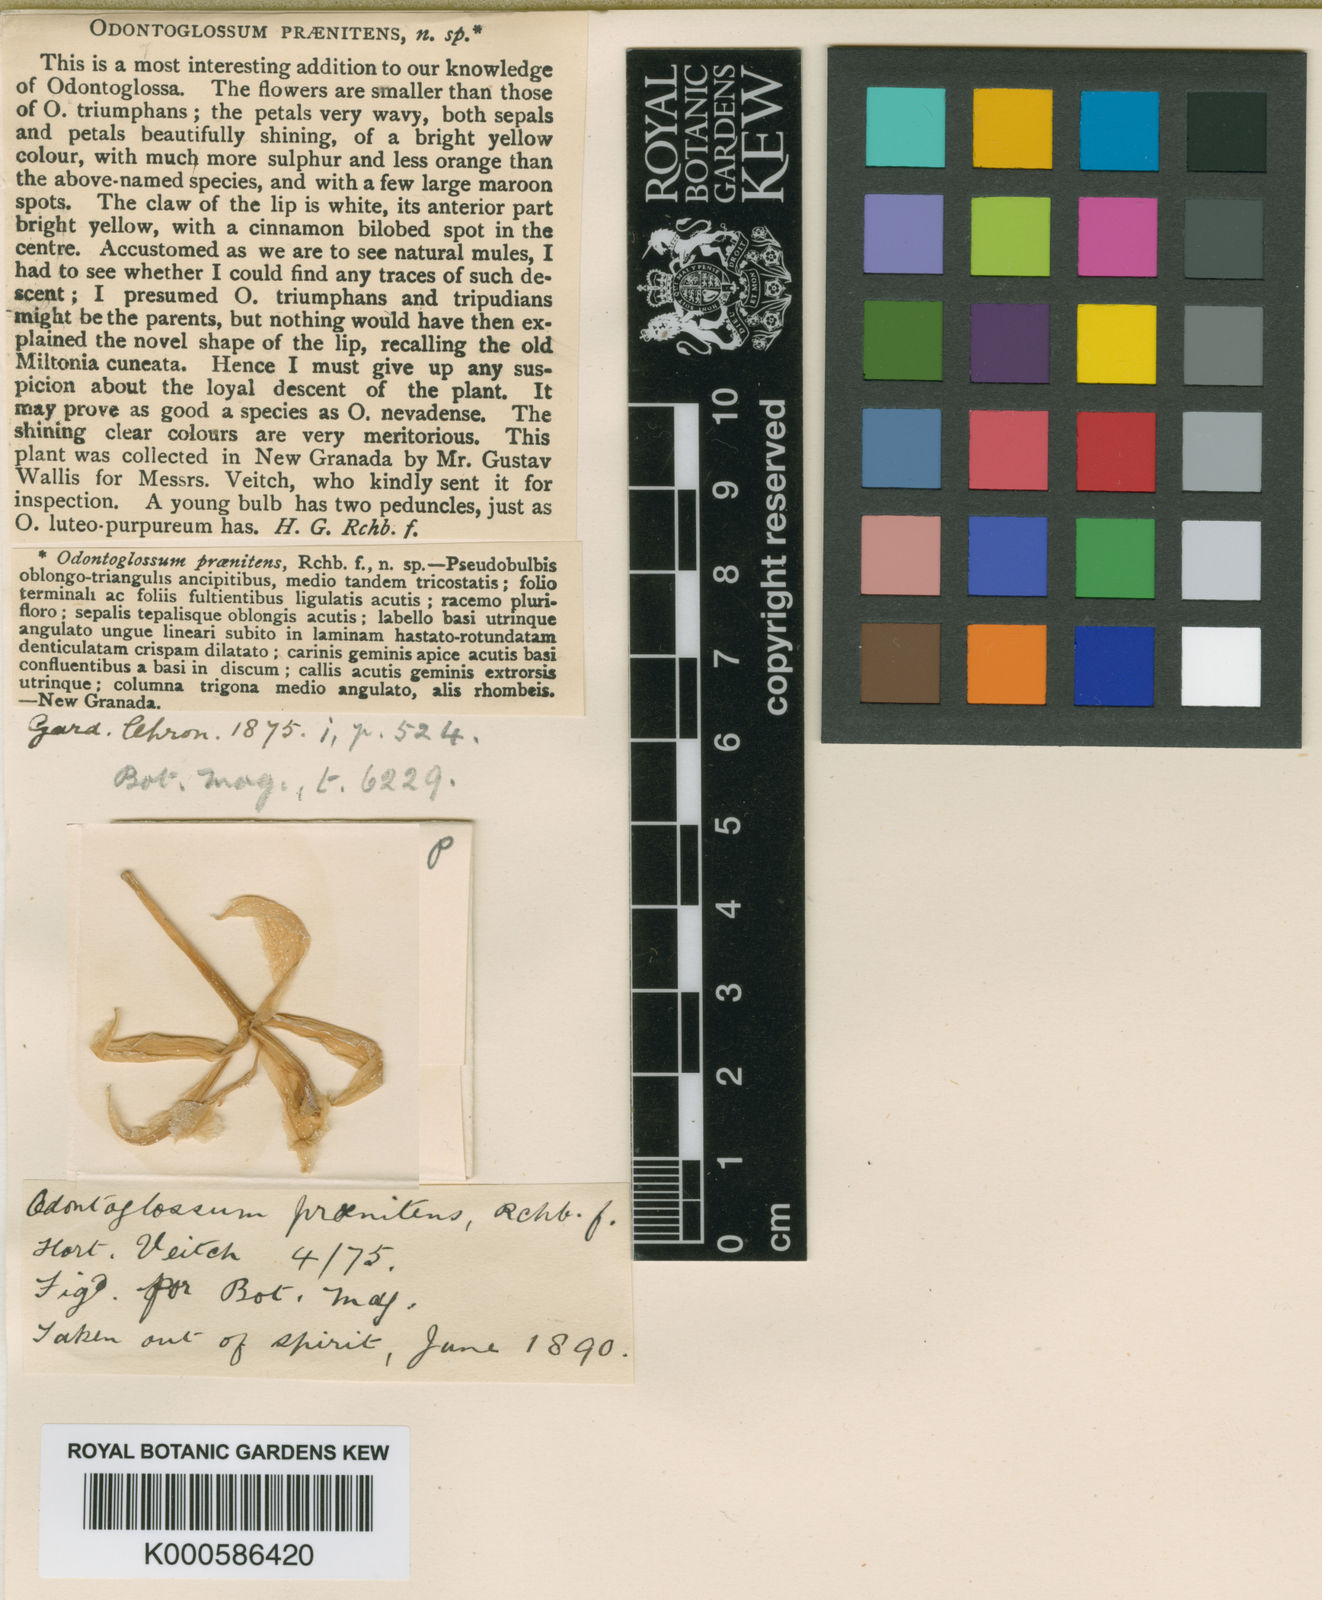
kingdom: Plantae
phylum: Tracheophyta
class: Liliopsida
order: Asparagales
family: Orchidaceae
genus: Oncidium
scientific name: Oncidium praenitens
